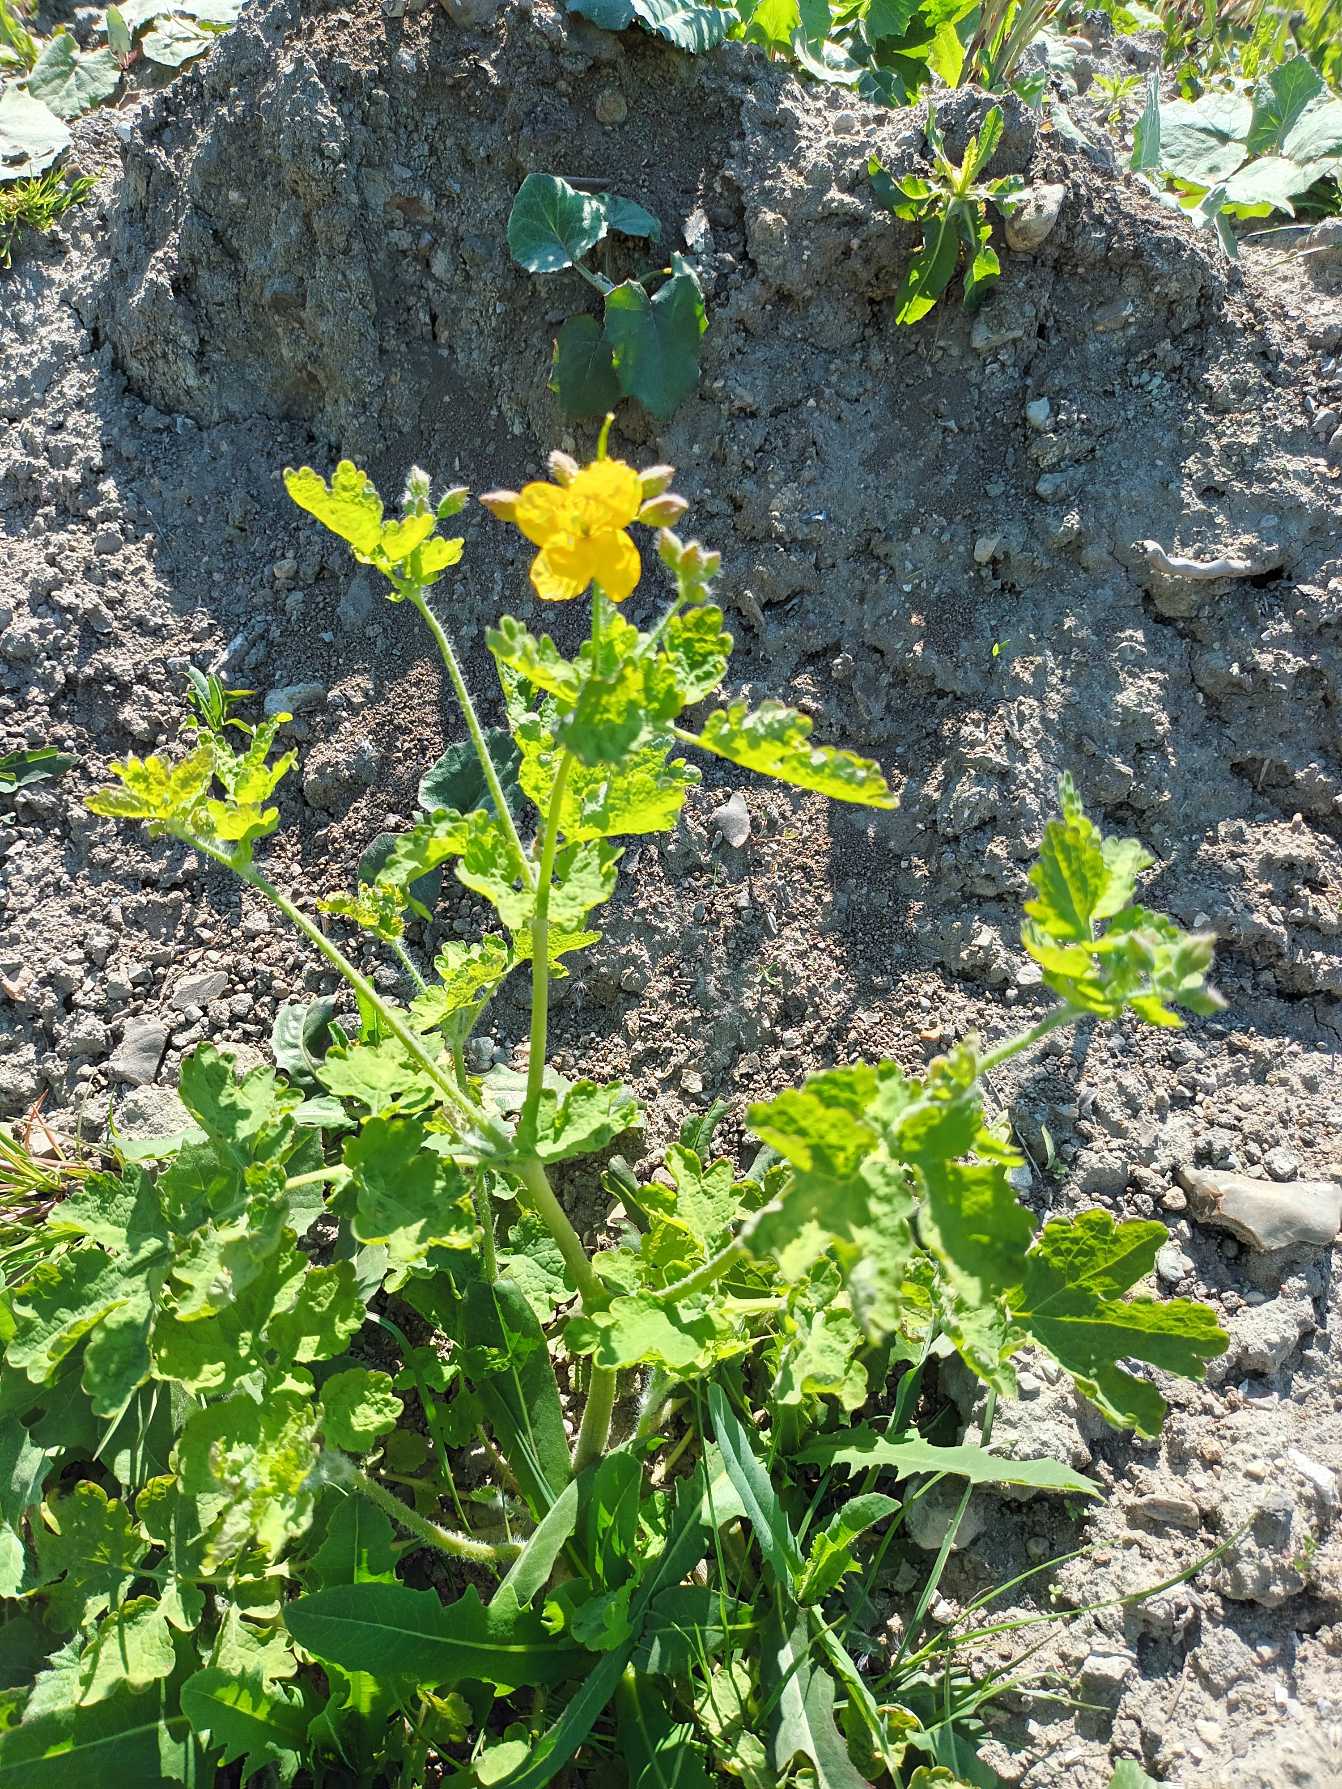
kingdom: Plantae
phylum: Tracheophyta
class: Magnoliopsida
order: Ranunculales
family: Papaveraceae
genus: Chelidonium
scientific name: Chelidonium majus
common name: Svaleurt
